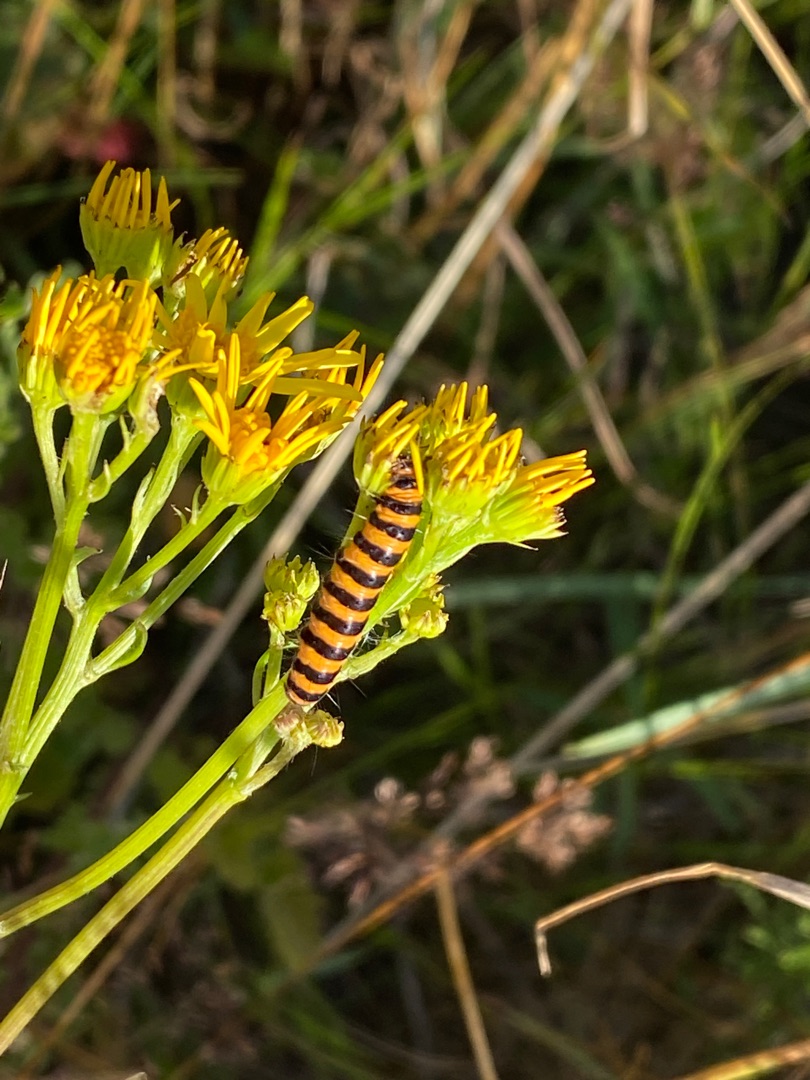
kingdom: Animalia
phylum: Arthropoda
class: Insecta
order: Lepidoptera
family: Erebidae
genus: Tyria
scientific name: Tyria jacobaeae
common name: Blodplet
